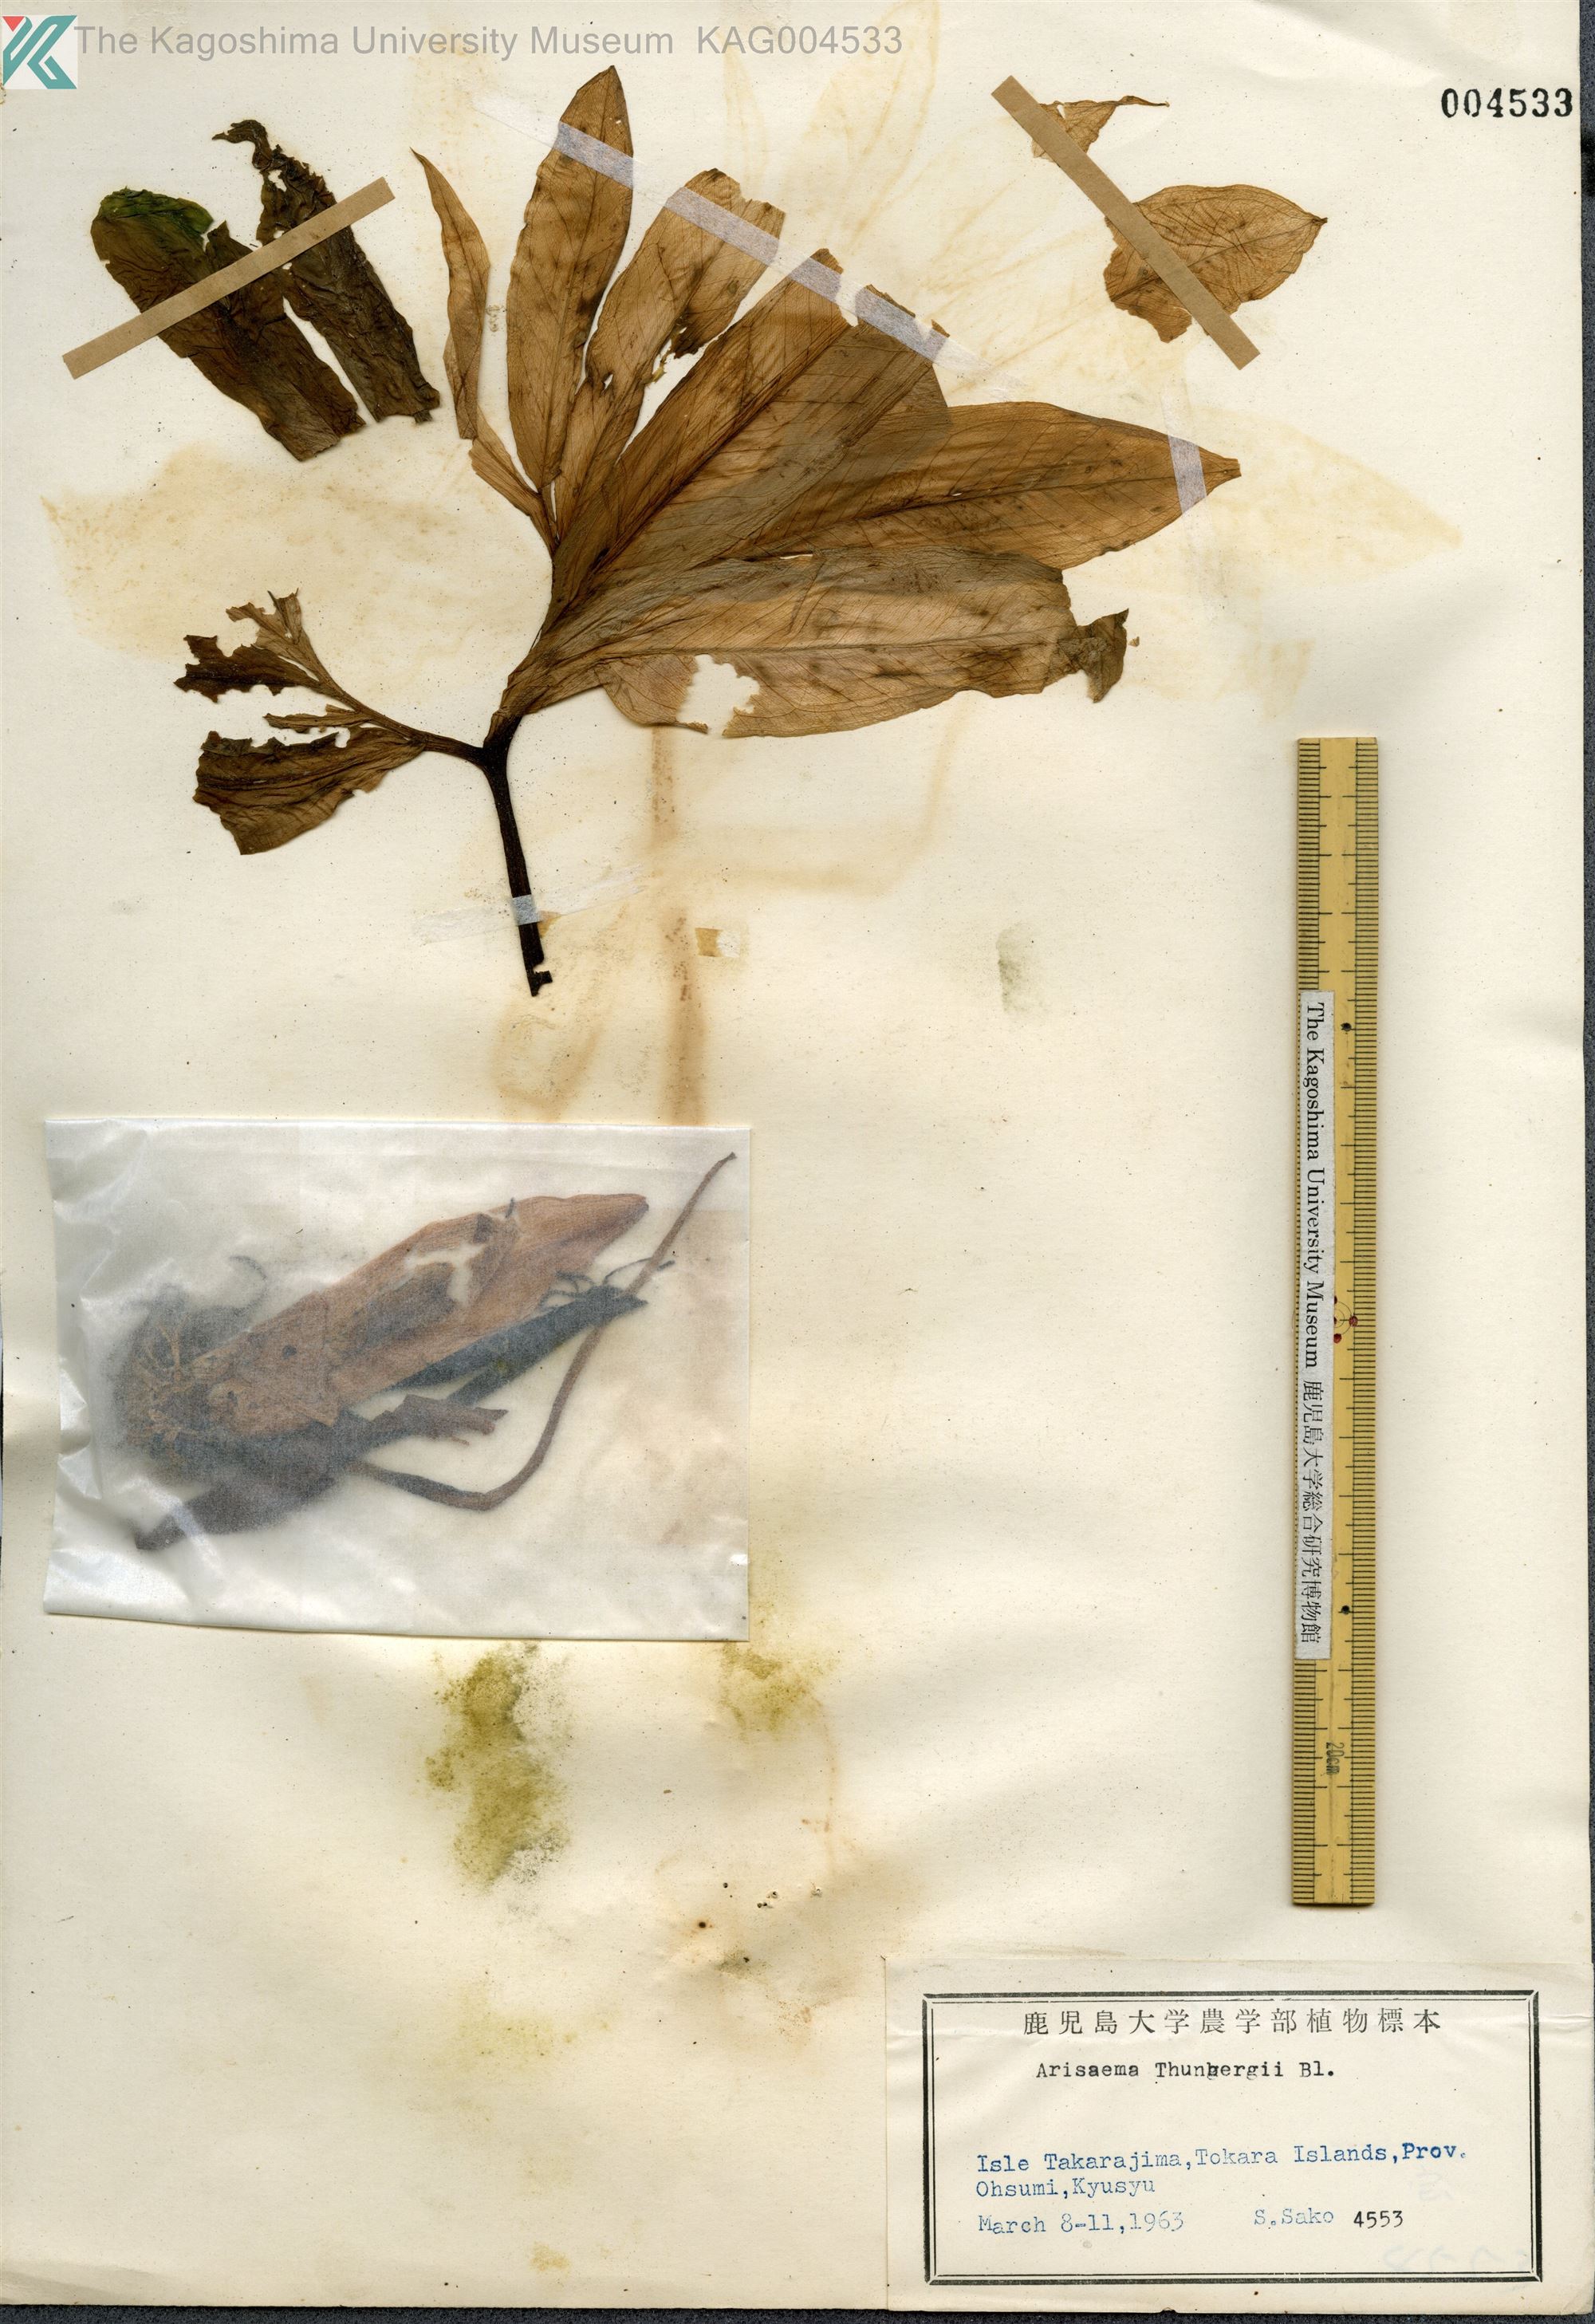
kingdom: Plantae
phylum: Tracheophyta
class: Liliopsida
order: Alismatales
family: Araceae
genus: Arisaema
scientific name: Arisaema thunbergii
